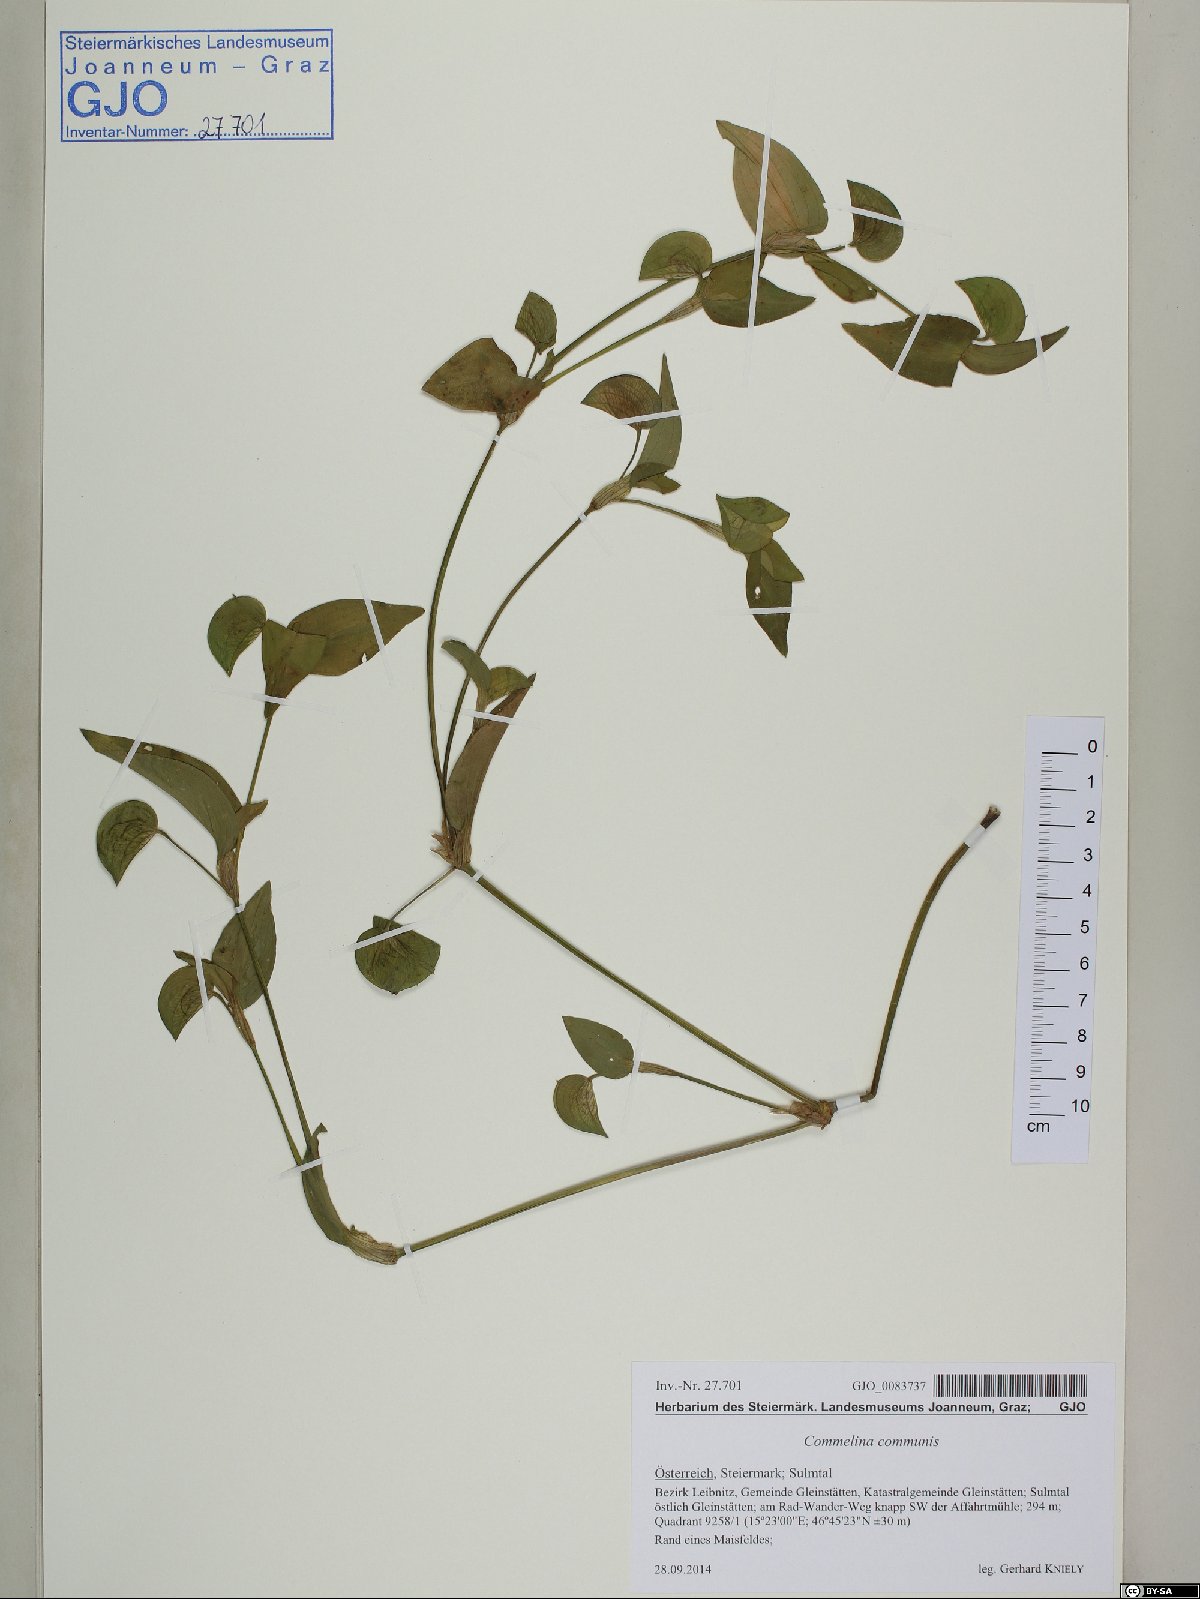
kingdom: Plantae
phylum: Tracheophyta
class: Liliopsida
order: Commelinales
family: Commelinaceae
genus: Commelina
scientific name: Commelina communis
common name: Asiatic dayflower
